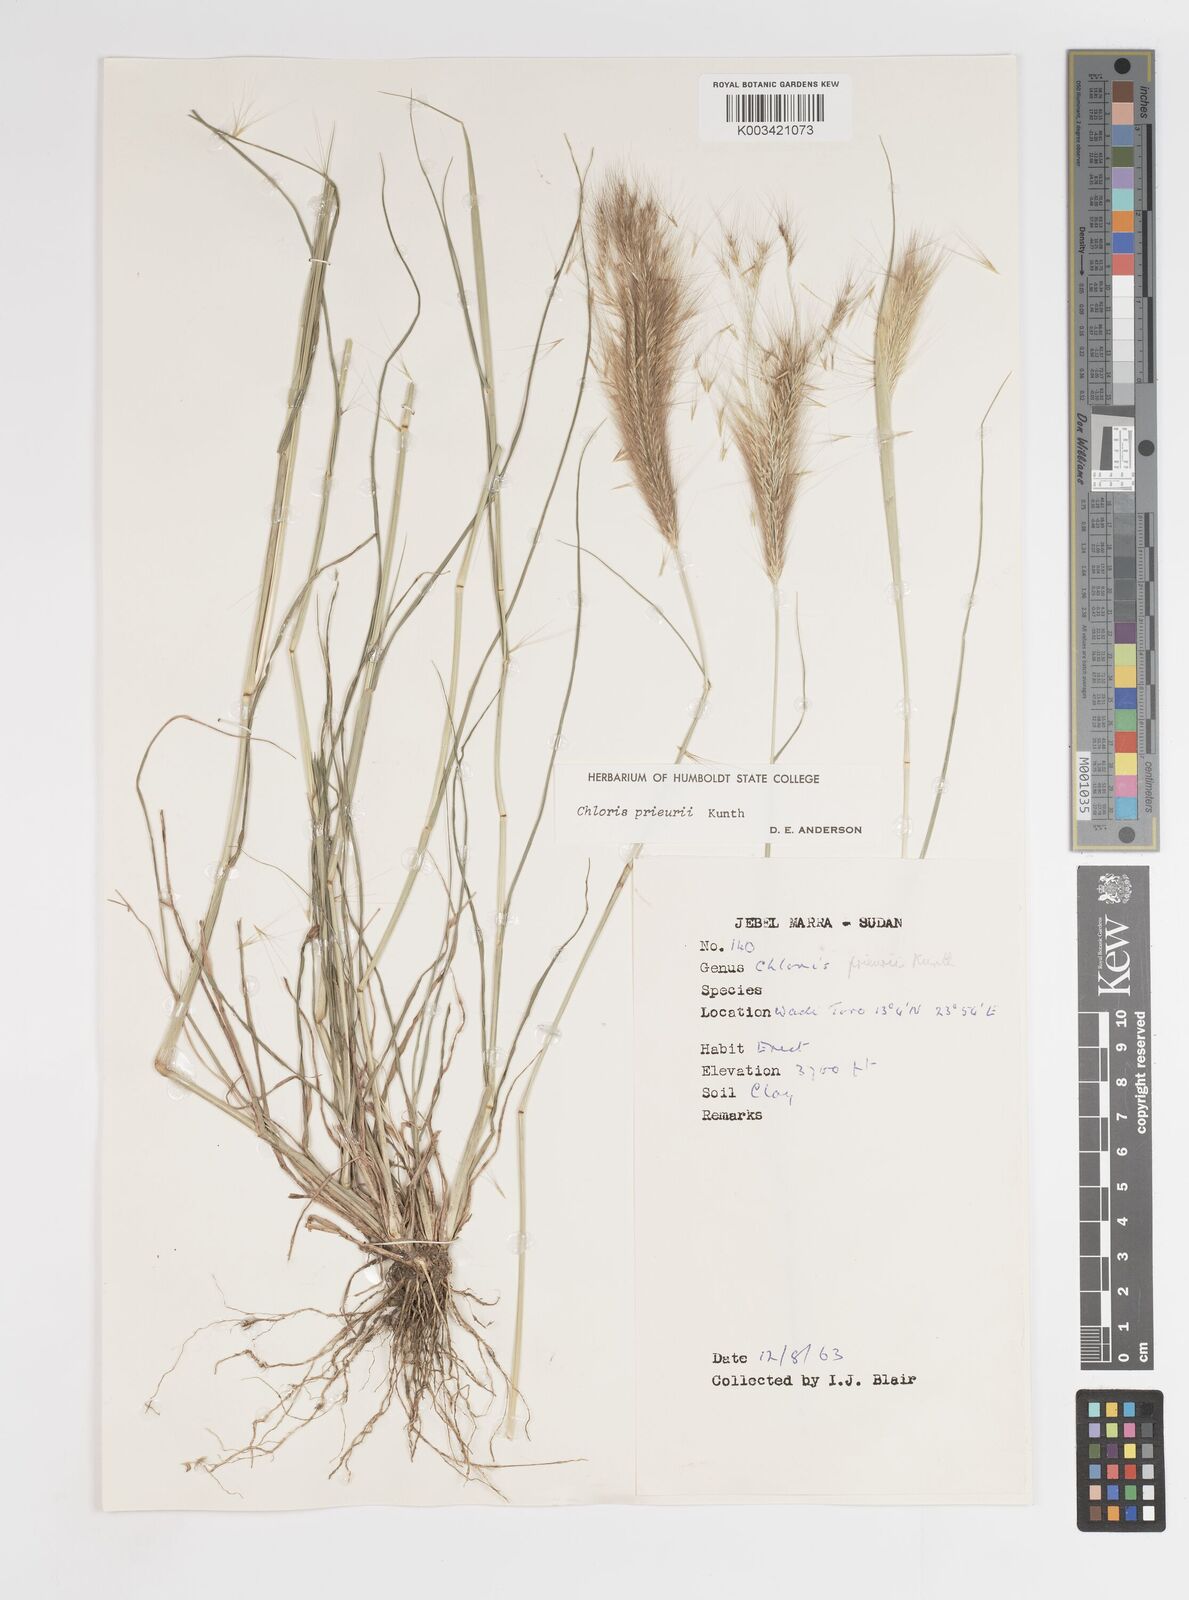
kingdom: Plantae
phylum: Tracheophyta
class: Liliopsida
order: Poales
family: Poaceae
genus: Enteropogon
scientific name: Enteropogon prieurii
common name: Prieur's umbrellagrass
